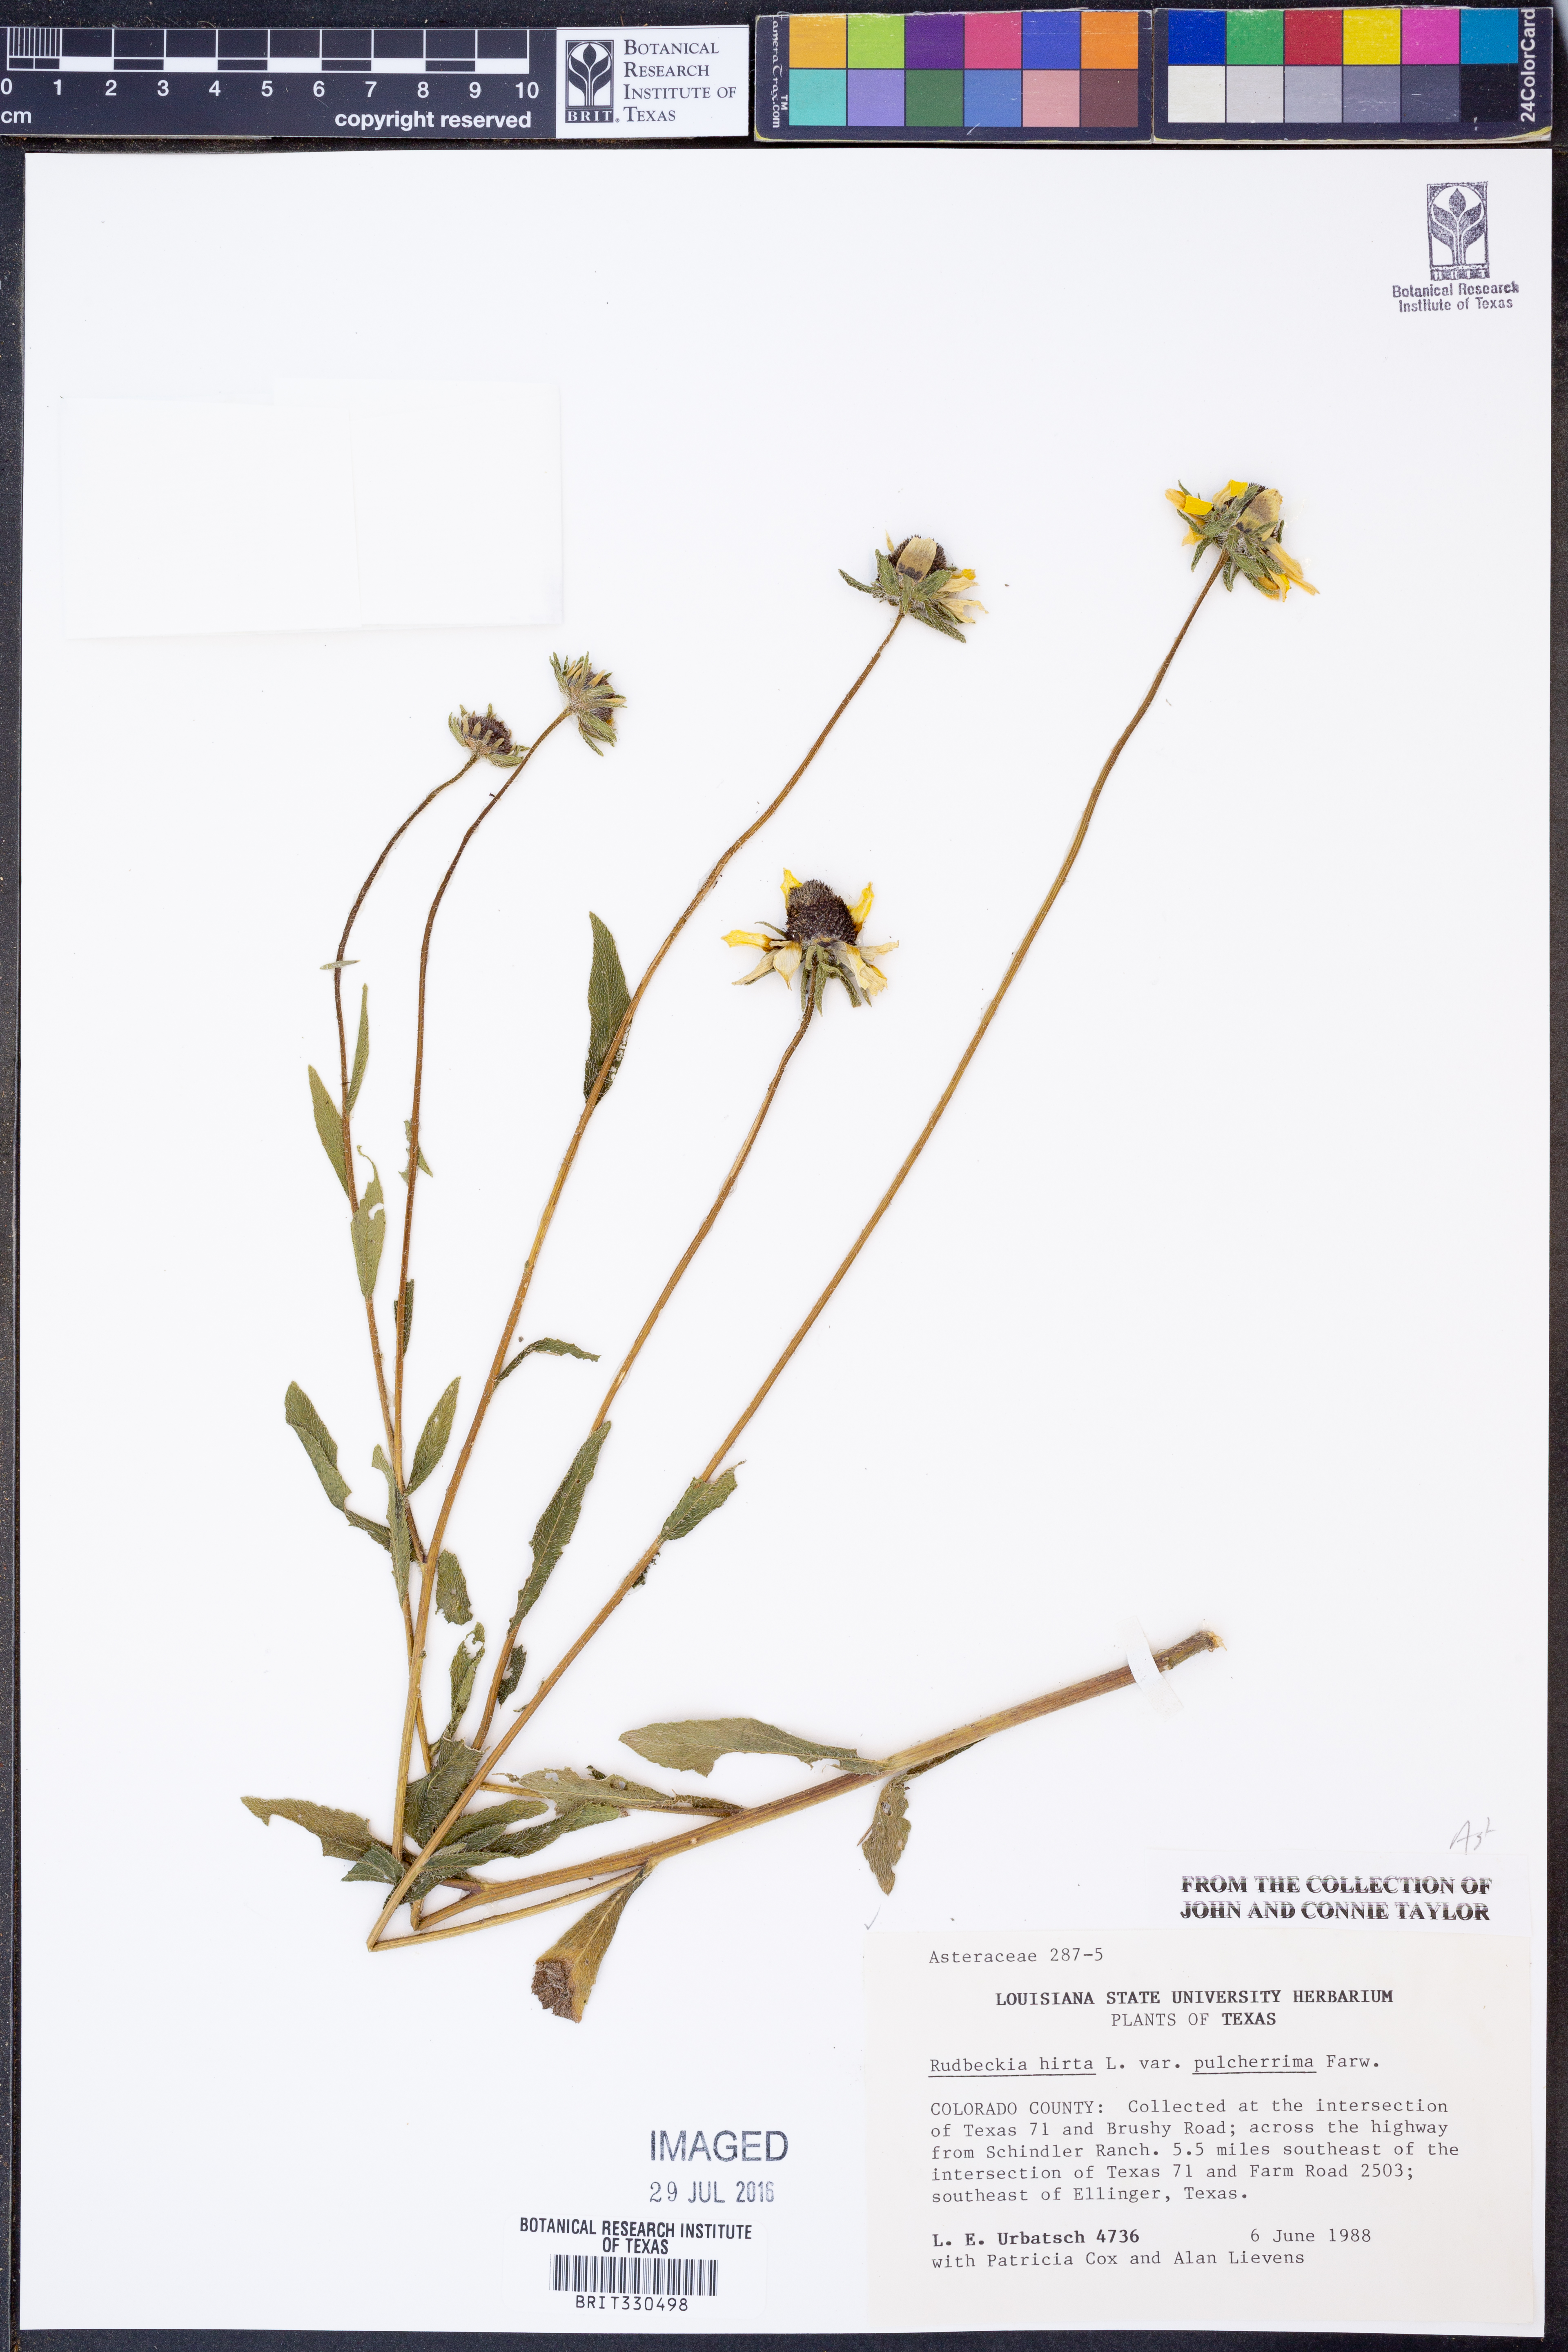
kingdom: Plantae
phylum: Tracheophyta
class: Magnoliopsida
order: Asterales
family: Asteraceae
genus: Rudbeckia
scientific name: Rudbeckia hirta
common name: Black-eyed-susan
